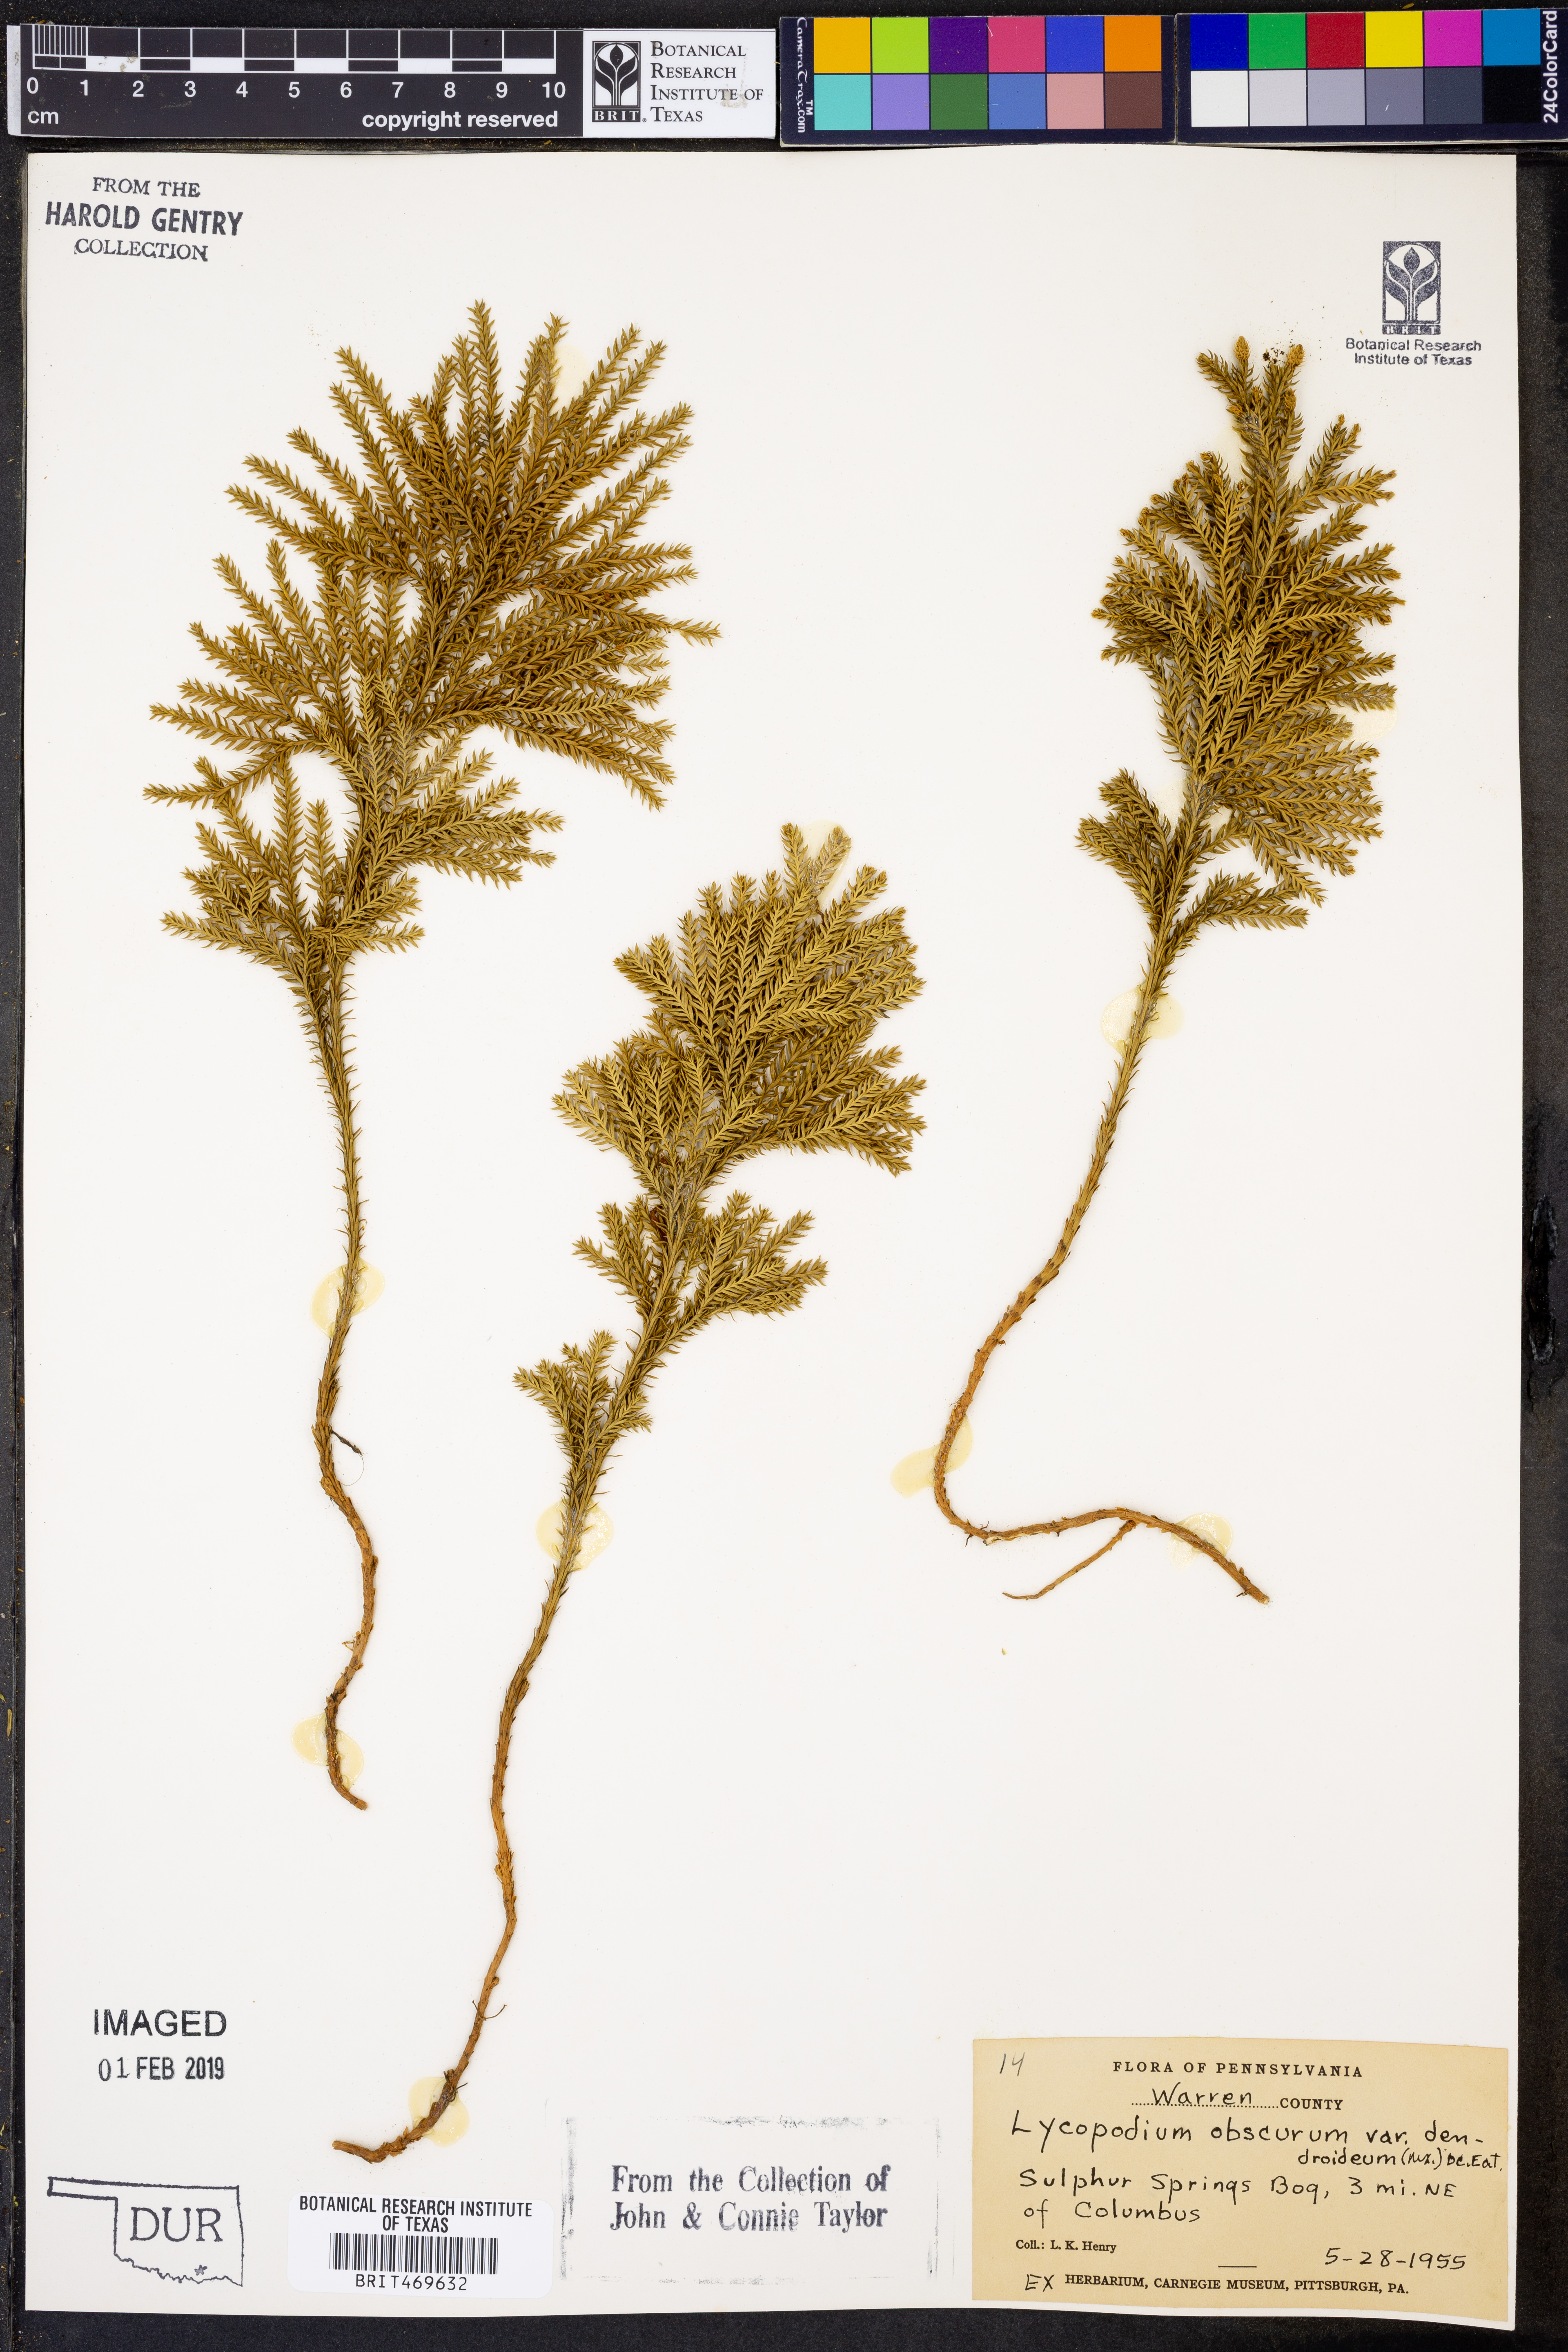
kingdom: Plantae
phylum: Tracheophyta
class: Lycopodiopsida
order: Lycopodiales
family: Lycopodiaceae
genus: Dendrolycopodium
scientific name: Dendrolycopodium dendroideum
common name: Northern tree-clubmoss
